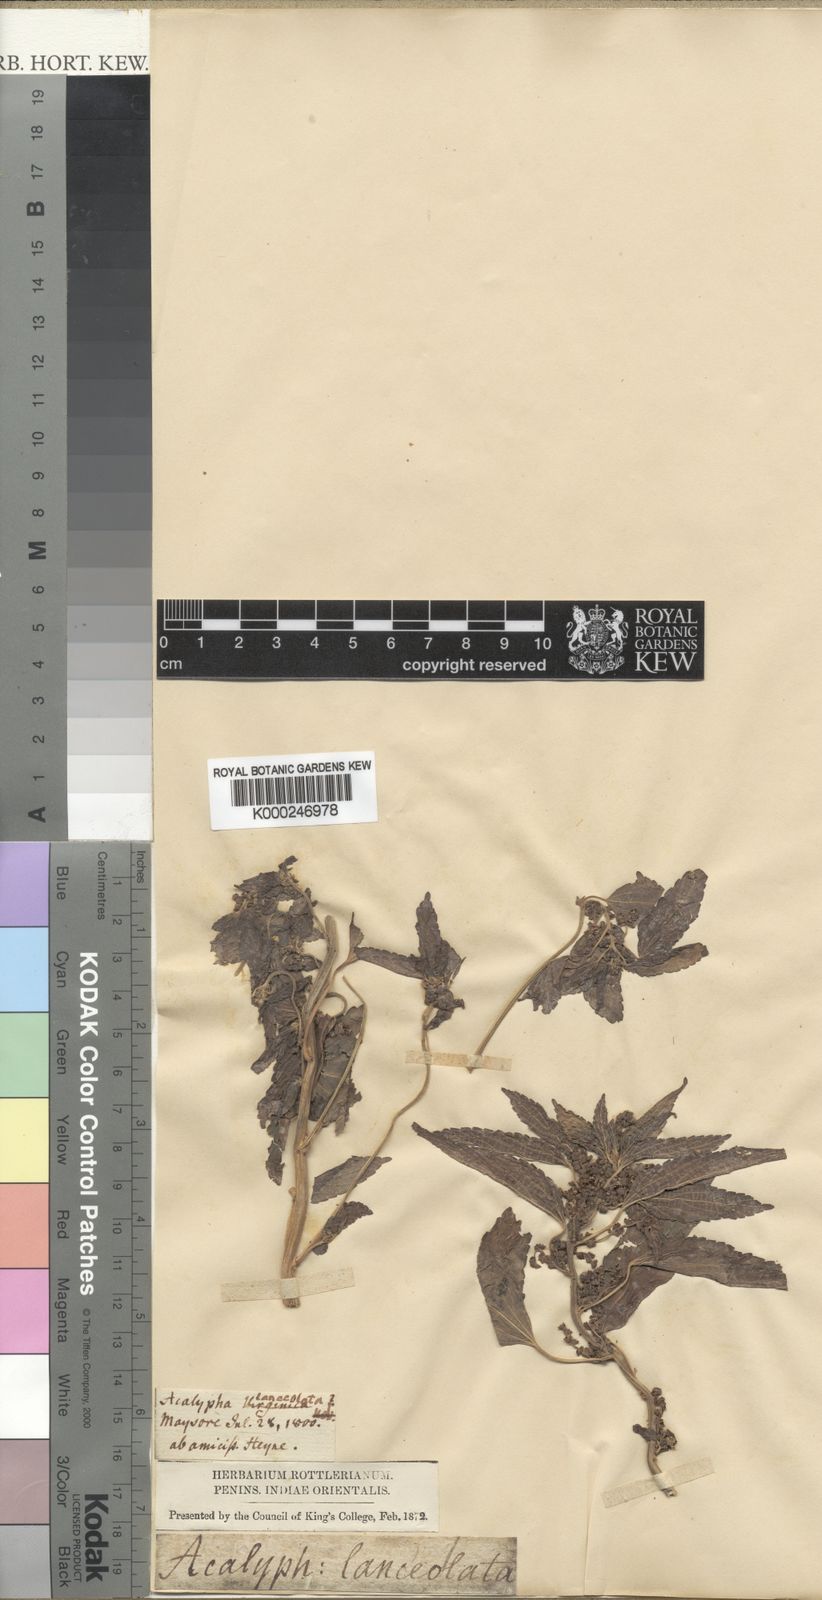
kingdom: Plantae
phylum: Tracheophyta
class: Magnoliopsida
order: Malpighiales
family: Euphorbiaceae
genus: Acalypha
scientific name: Acalypha lanceolata
